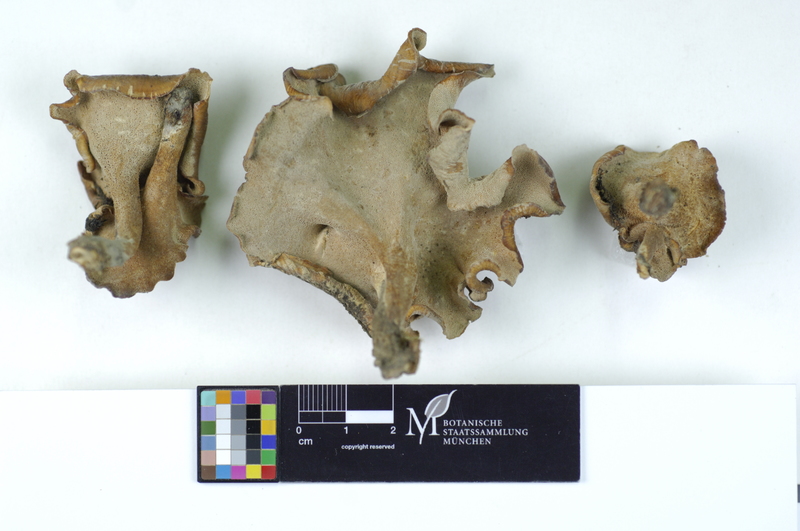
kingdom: Plantae
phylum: Tracheophyta
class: Magnoliopsida
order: Fabales
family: Fabaceae
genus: Robinia
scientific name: Robinia
